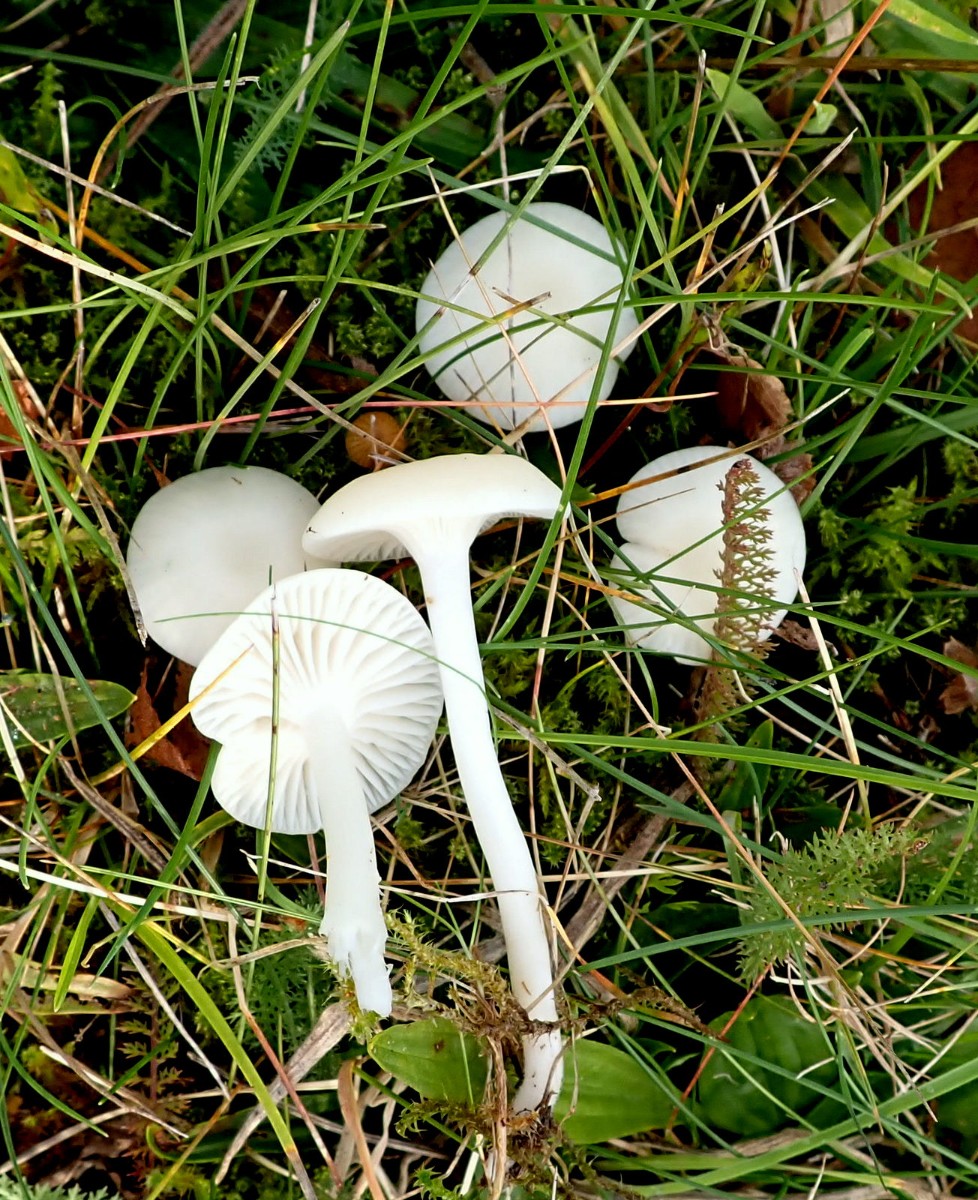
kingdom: Fungi
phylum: Basidiomycota
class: Agaricomycetes
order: Agaricales
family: Hygrophoraceae
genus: Cuphophyllus
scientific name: Cuphophyllus virgineus
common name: snehvid vokshat
